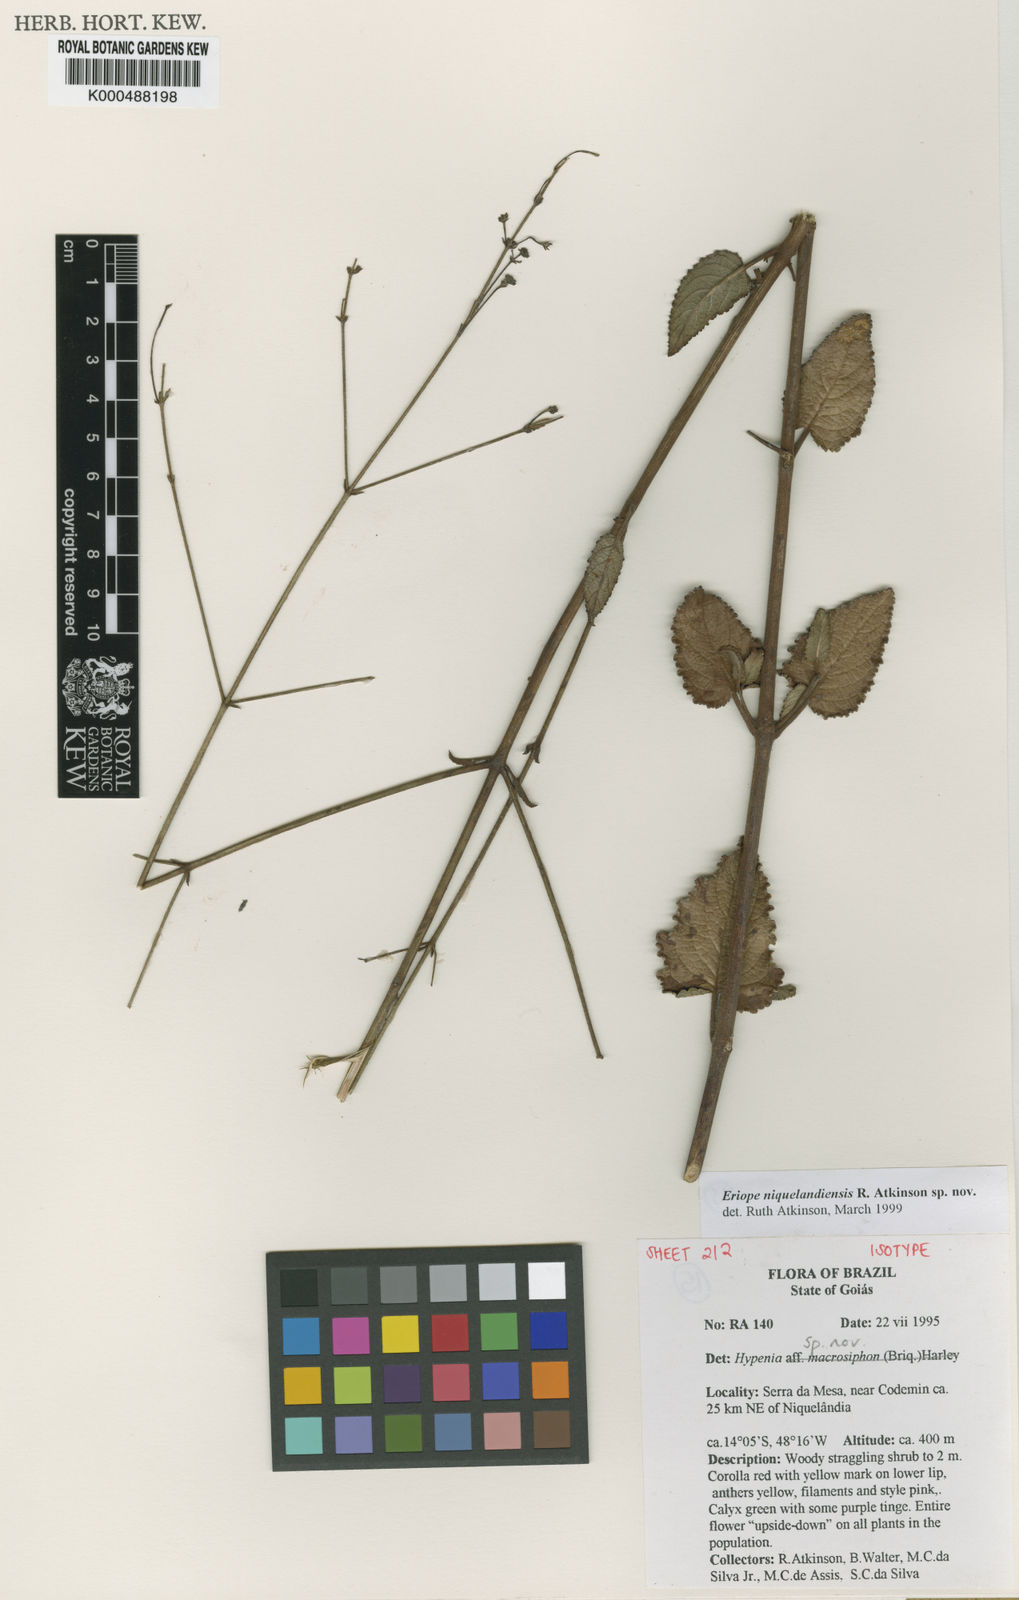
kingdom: Plantae
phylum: Tracheophyta
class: Magnoliopsida
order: Lamiales
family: Lamiaceae
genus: Hypenia
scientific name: Hypenia
